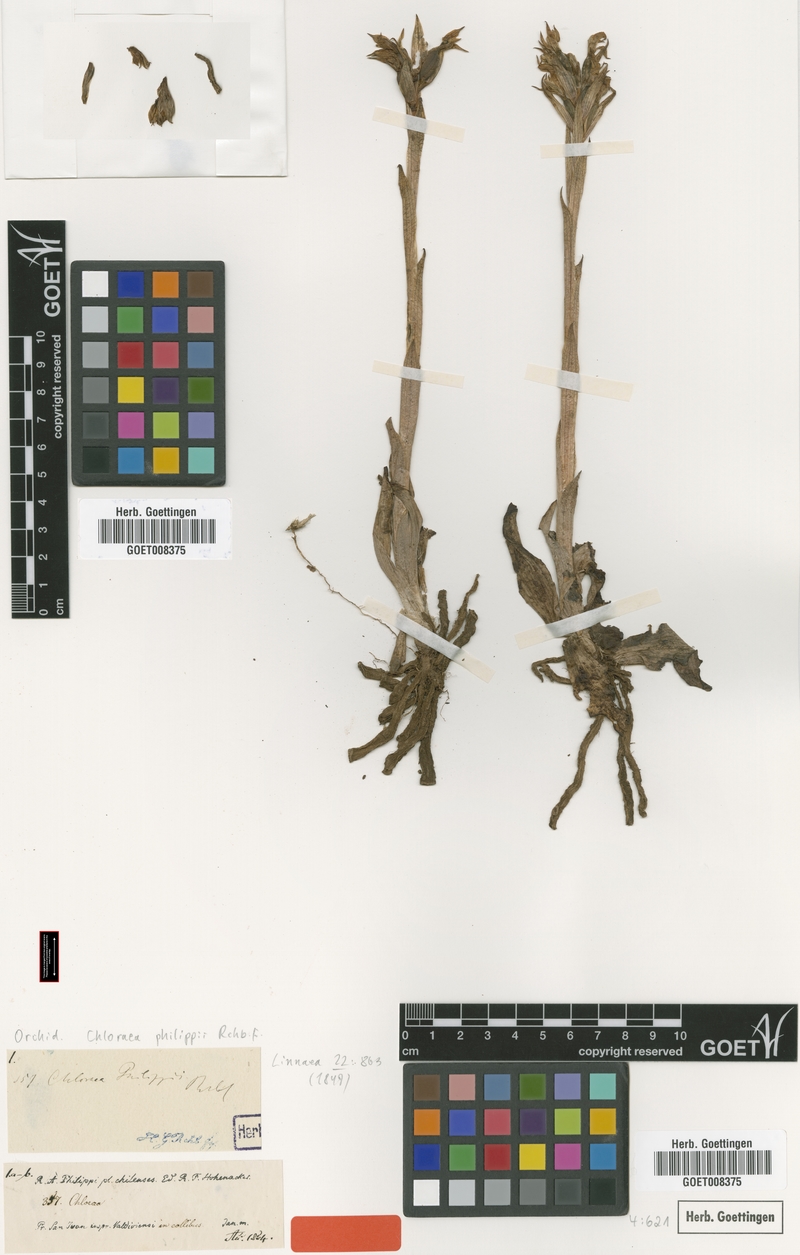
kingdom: Plantae
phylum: Tracheophyta
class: Liliopsida
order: Asparagales
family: Orchidaceae
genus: Chloraea
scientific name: Chloraea philippii
